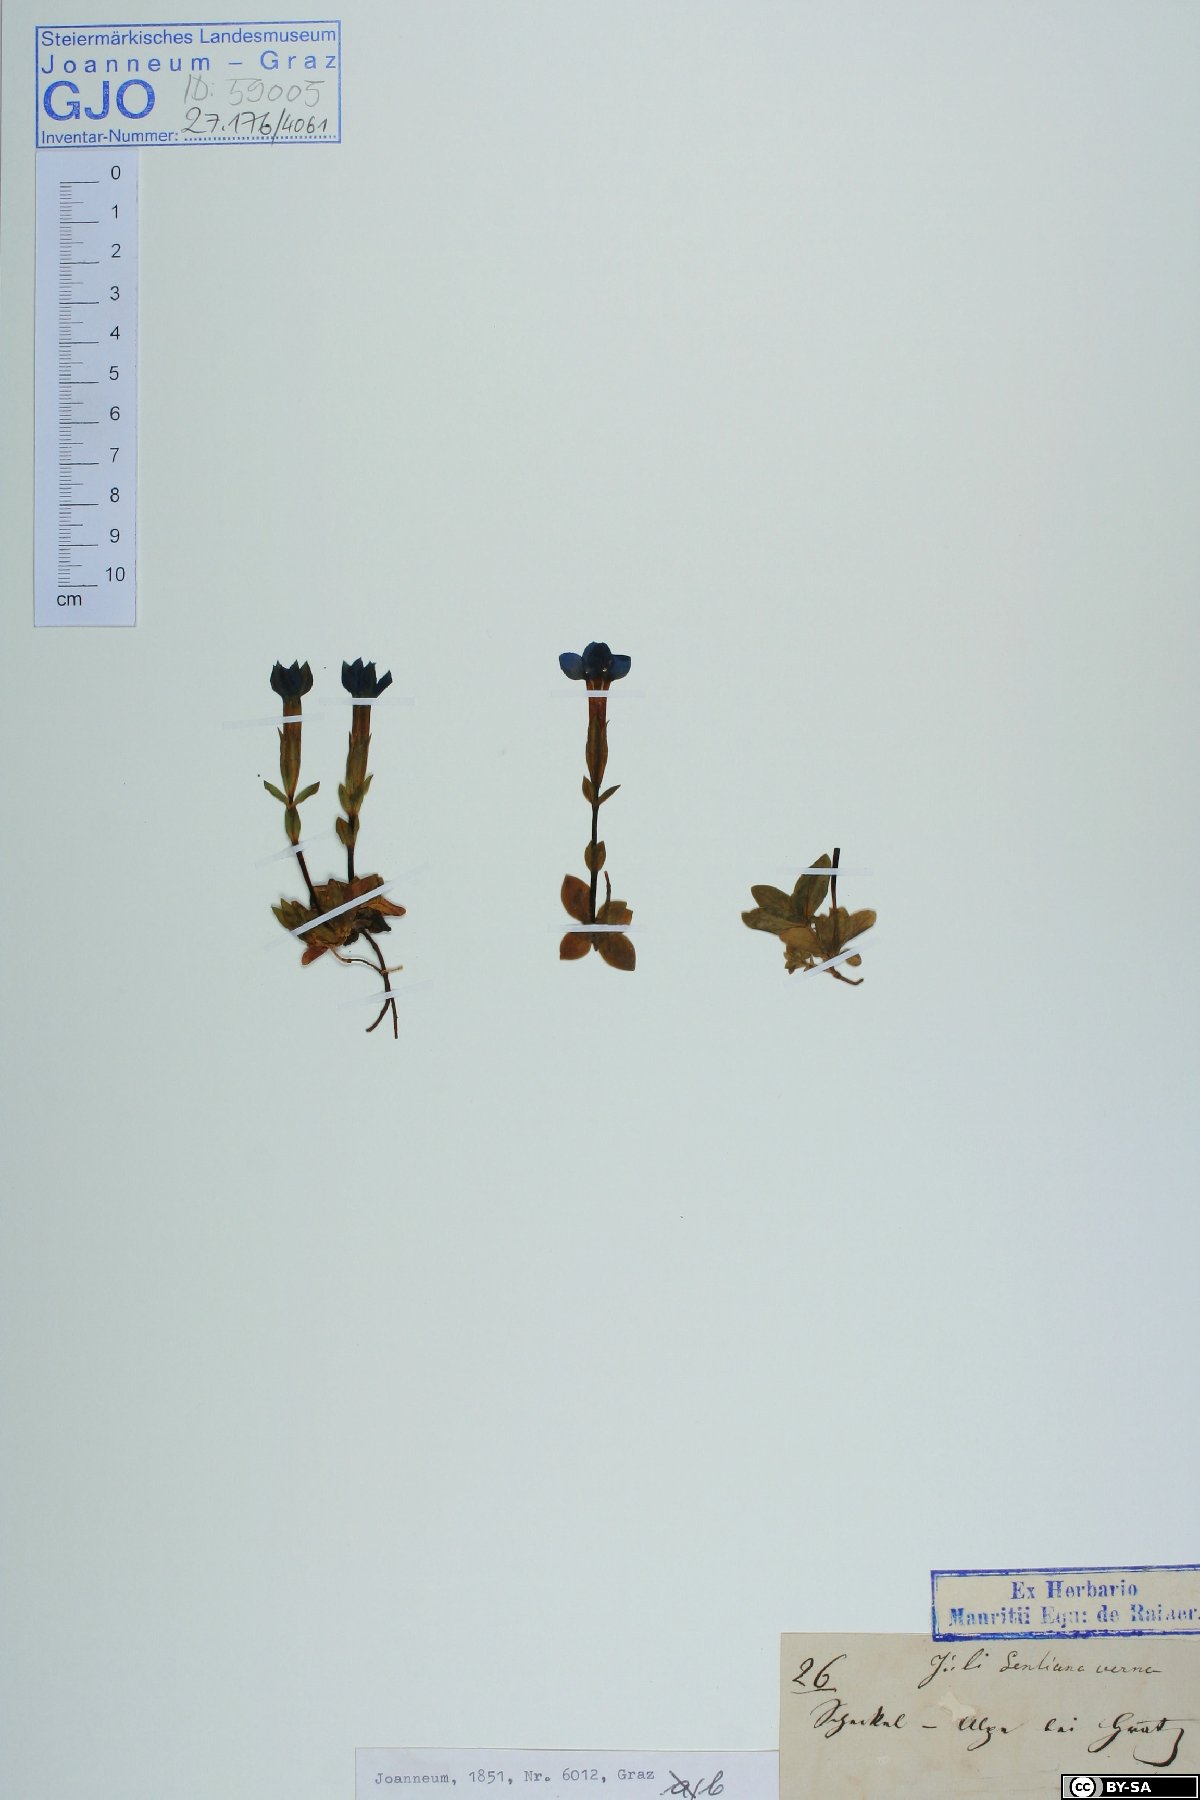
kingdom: Plantae
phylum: Tracheophyta
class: Magnoliopsida
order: Gentianales
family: Gentianaceae
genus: Gentiana
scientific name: Gentiana verna
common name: Spring gentian
